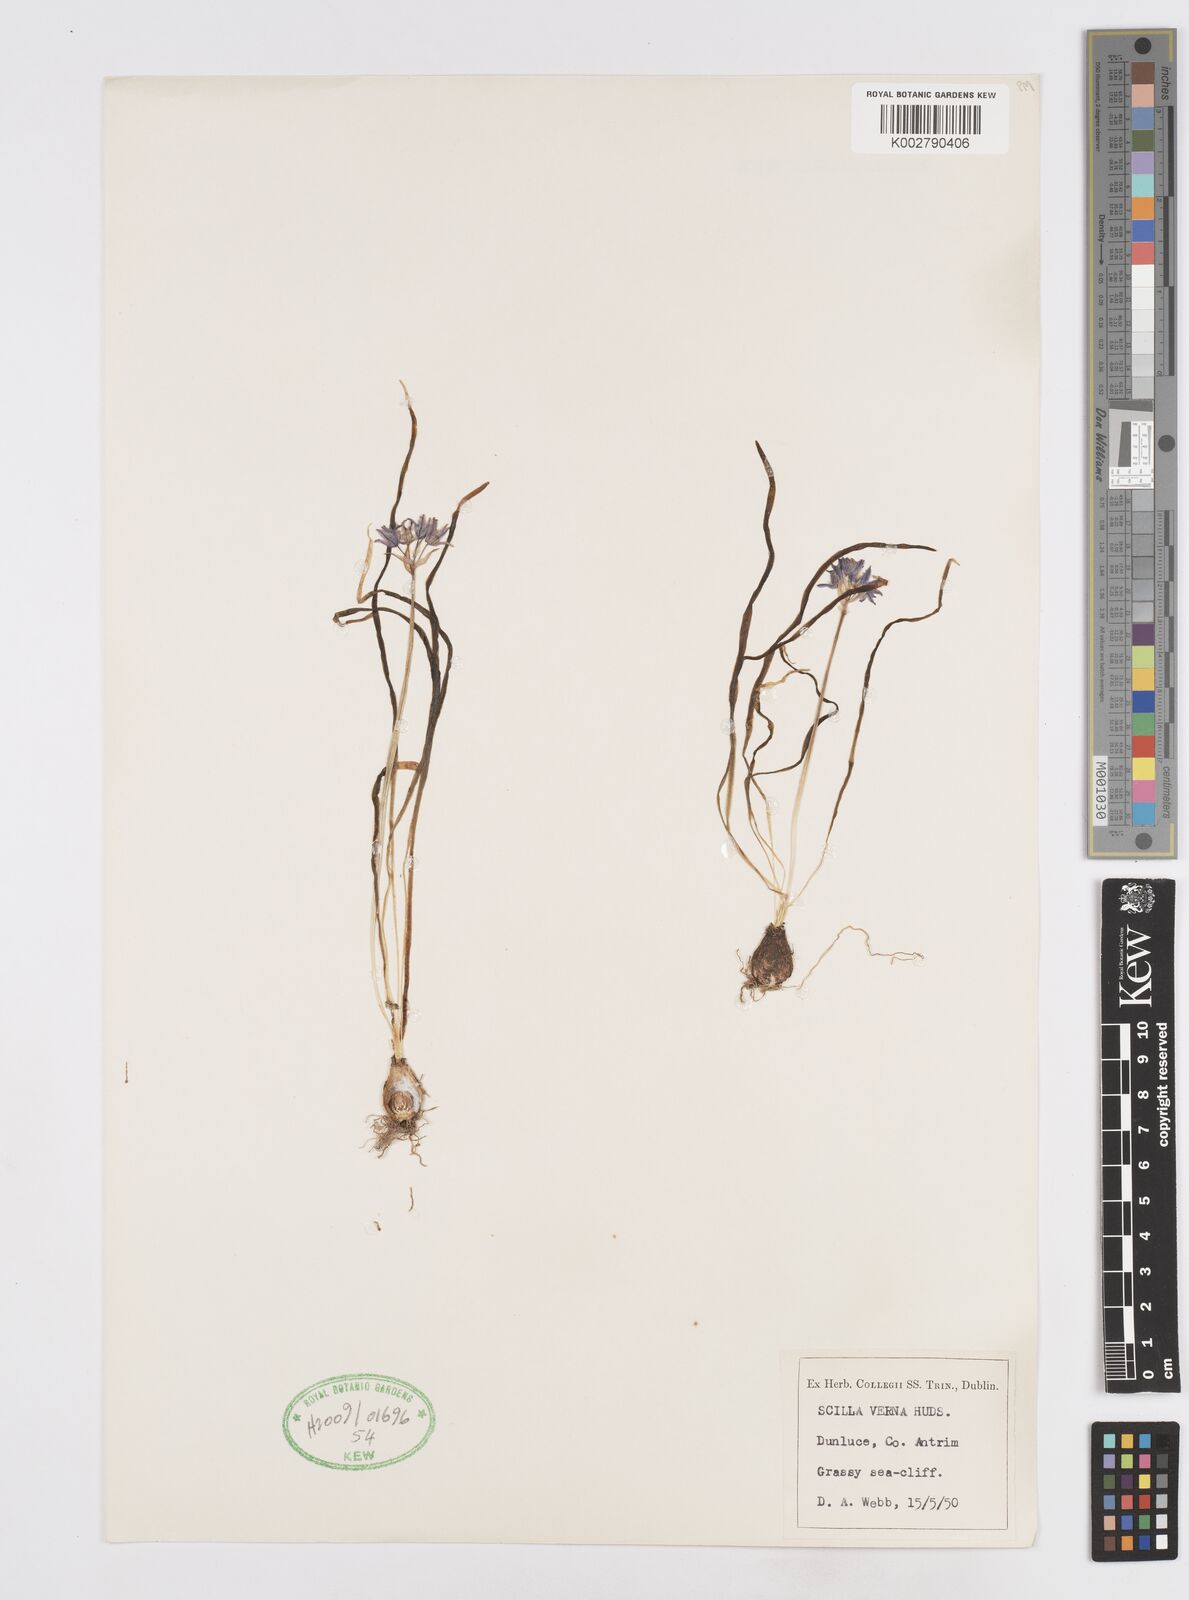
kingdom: Plantae
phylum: Tracheophyta
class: Liliopsida
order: Asparagales
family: Asparagaceae
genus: Scilla
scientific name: Scilla verna
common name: Spring squill
